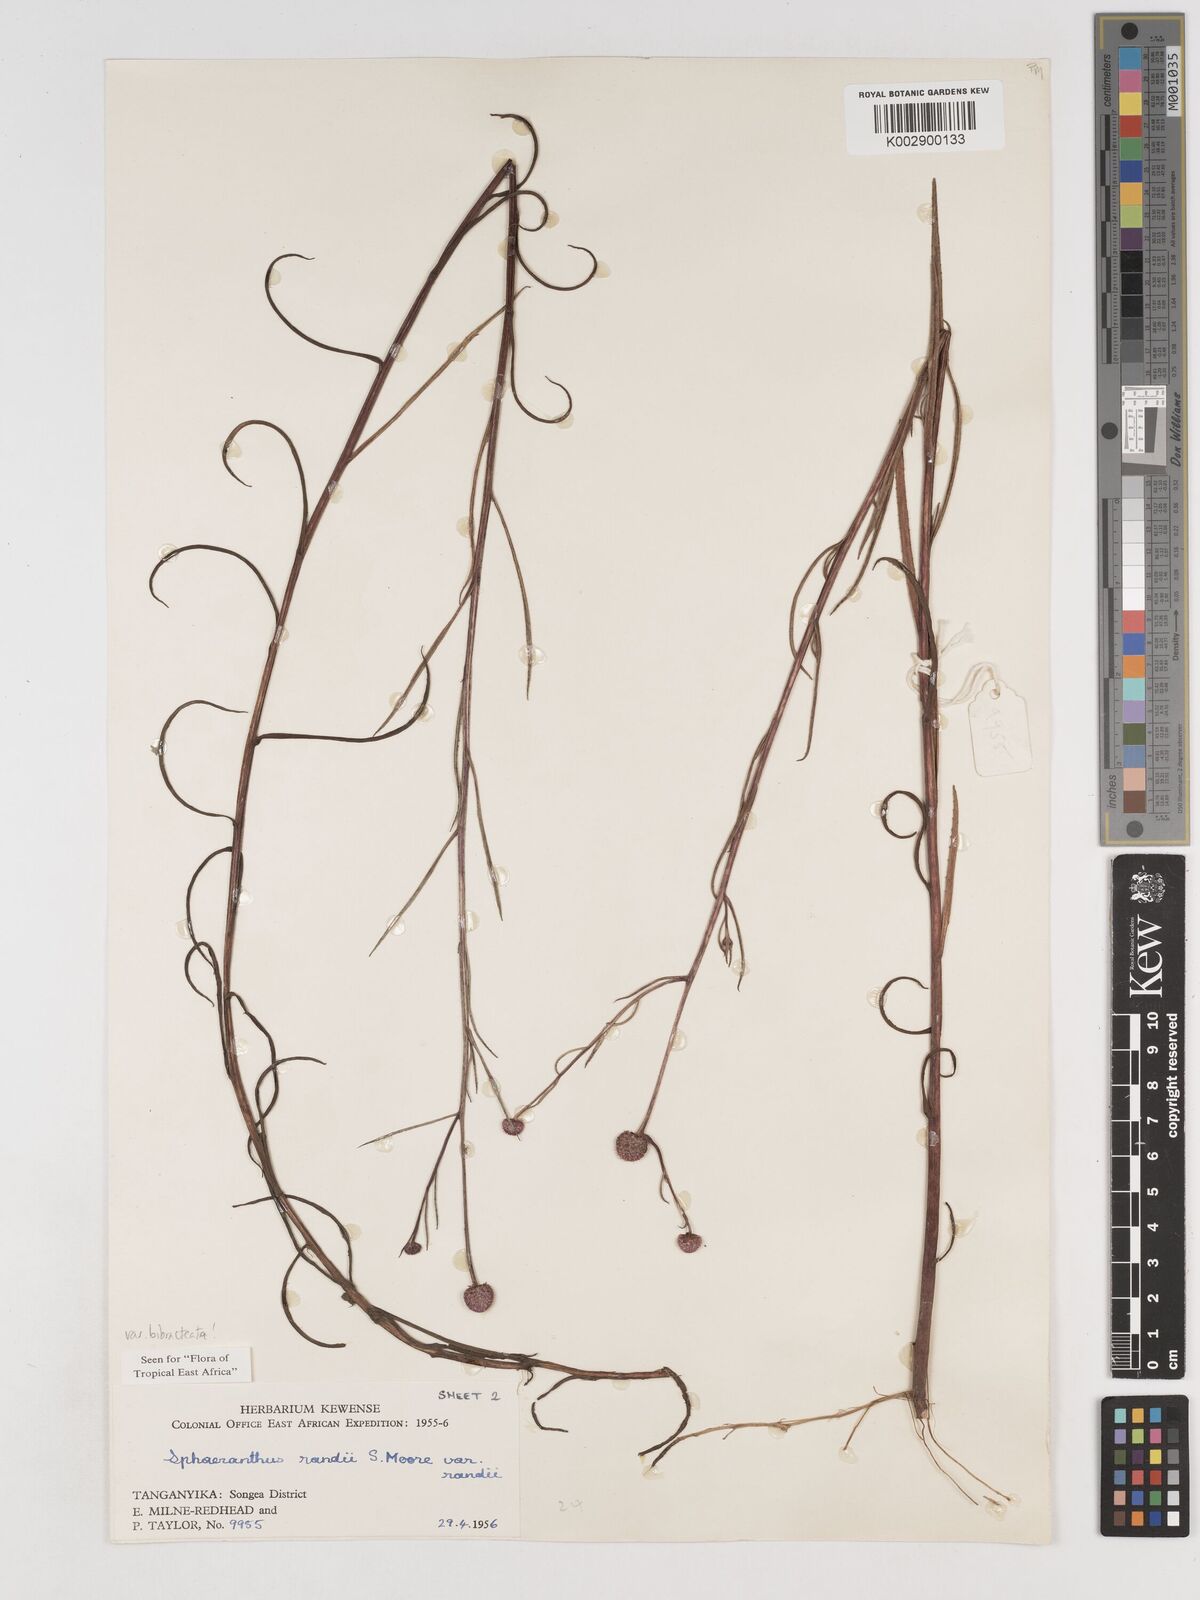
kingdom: Plantae
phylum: Tracheophyta
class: Magnoliopsida
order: Asterales
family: Asteraceae
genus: Sphaeranthus
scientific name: Sphaeranthus randii
